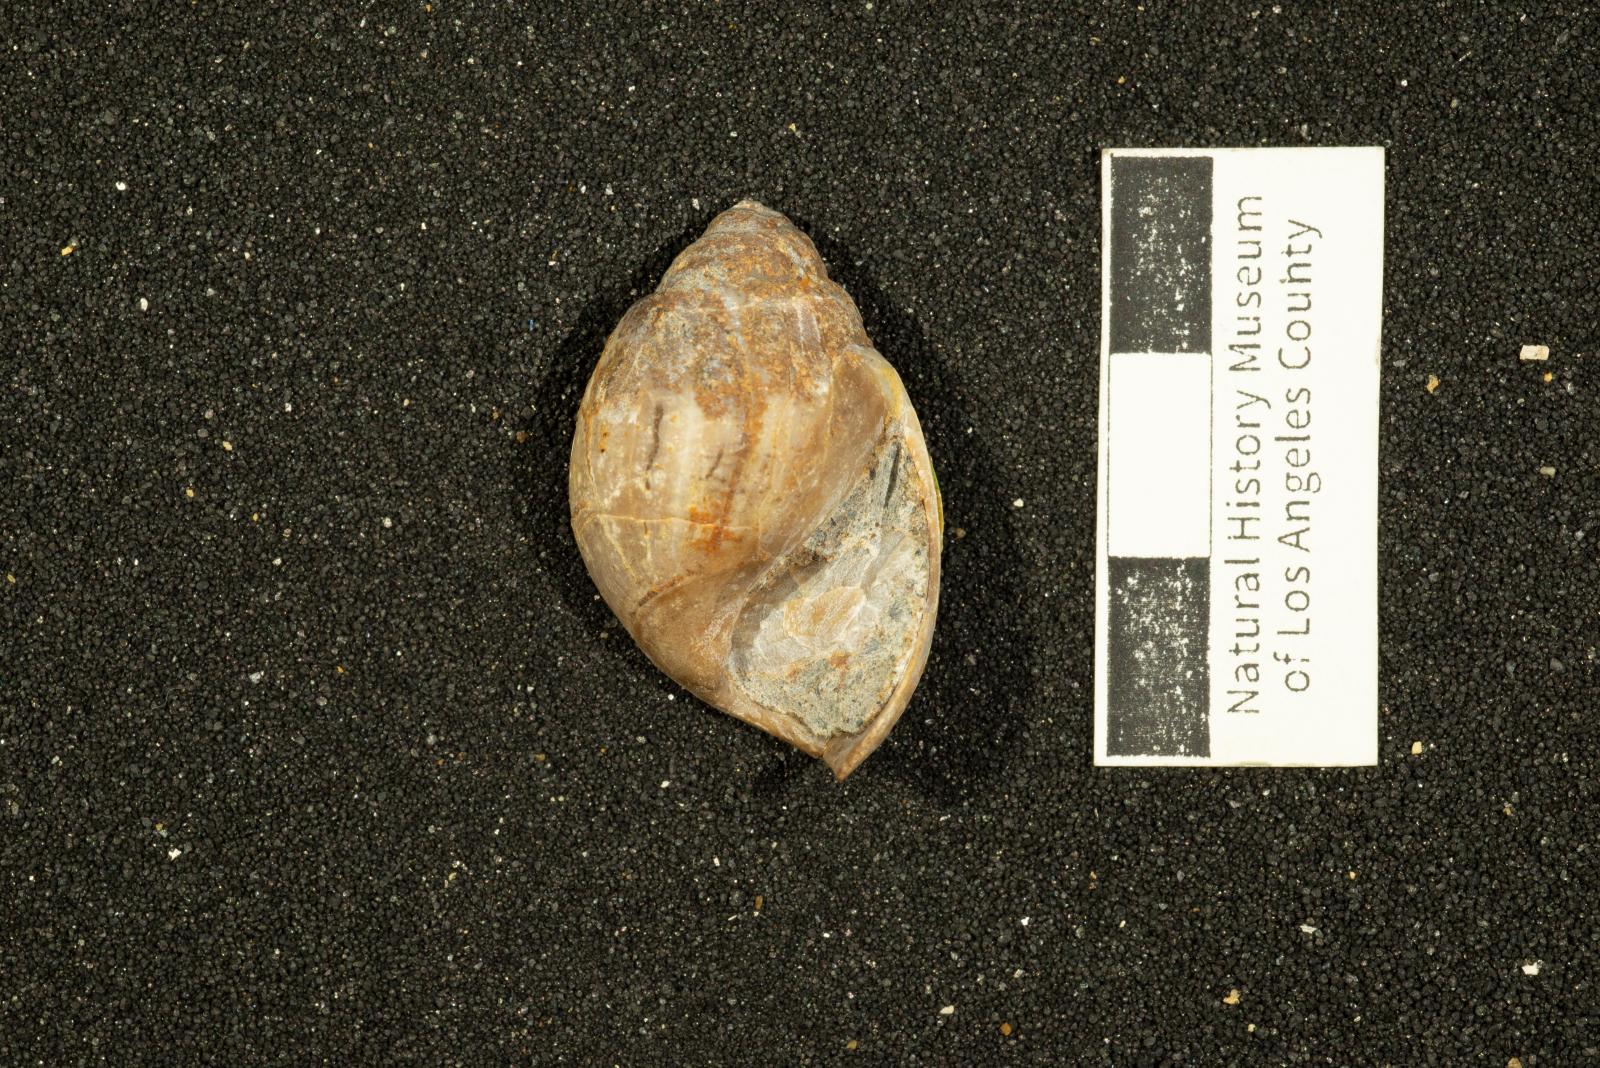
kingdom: Animalia
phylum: Mollusca
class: Gastropoda
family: Pseudomelaniidae
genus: Paosia
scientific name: Paosia Acteonina ursula
